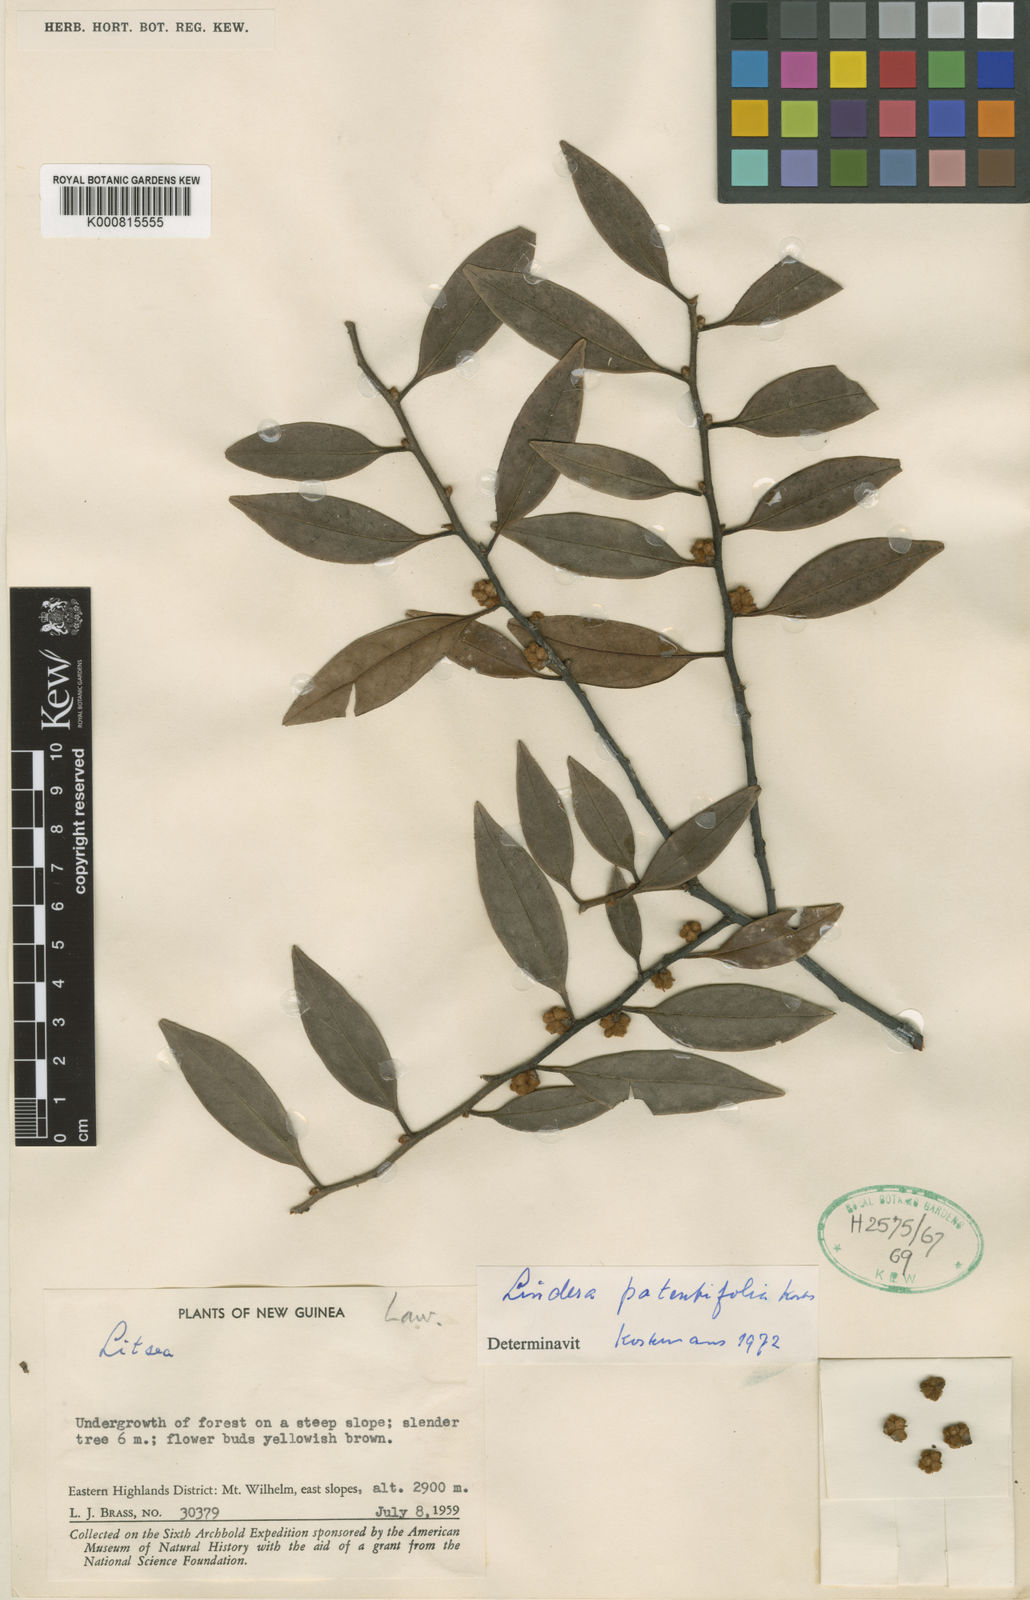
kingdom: Plantae
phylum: Tracheophyta
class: Magnoliopsida
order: Laurales
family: Lauraceae
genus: Lindera
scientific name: Lindera
